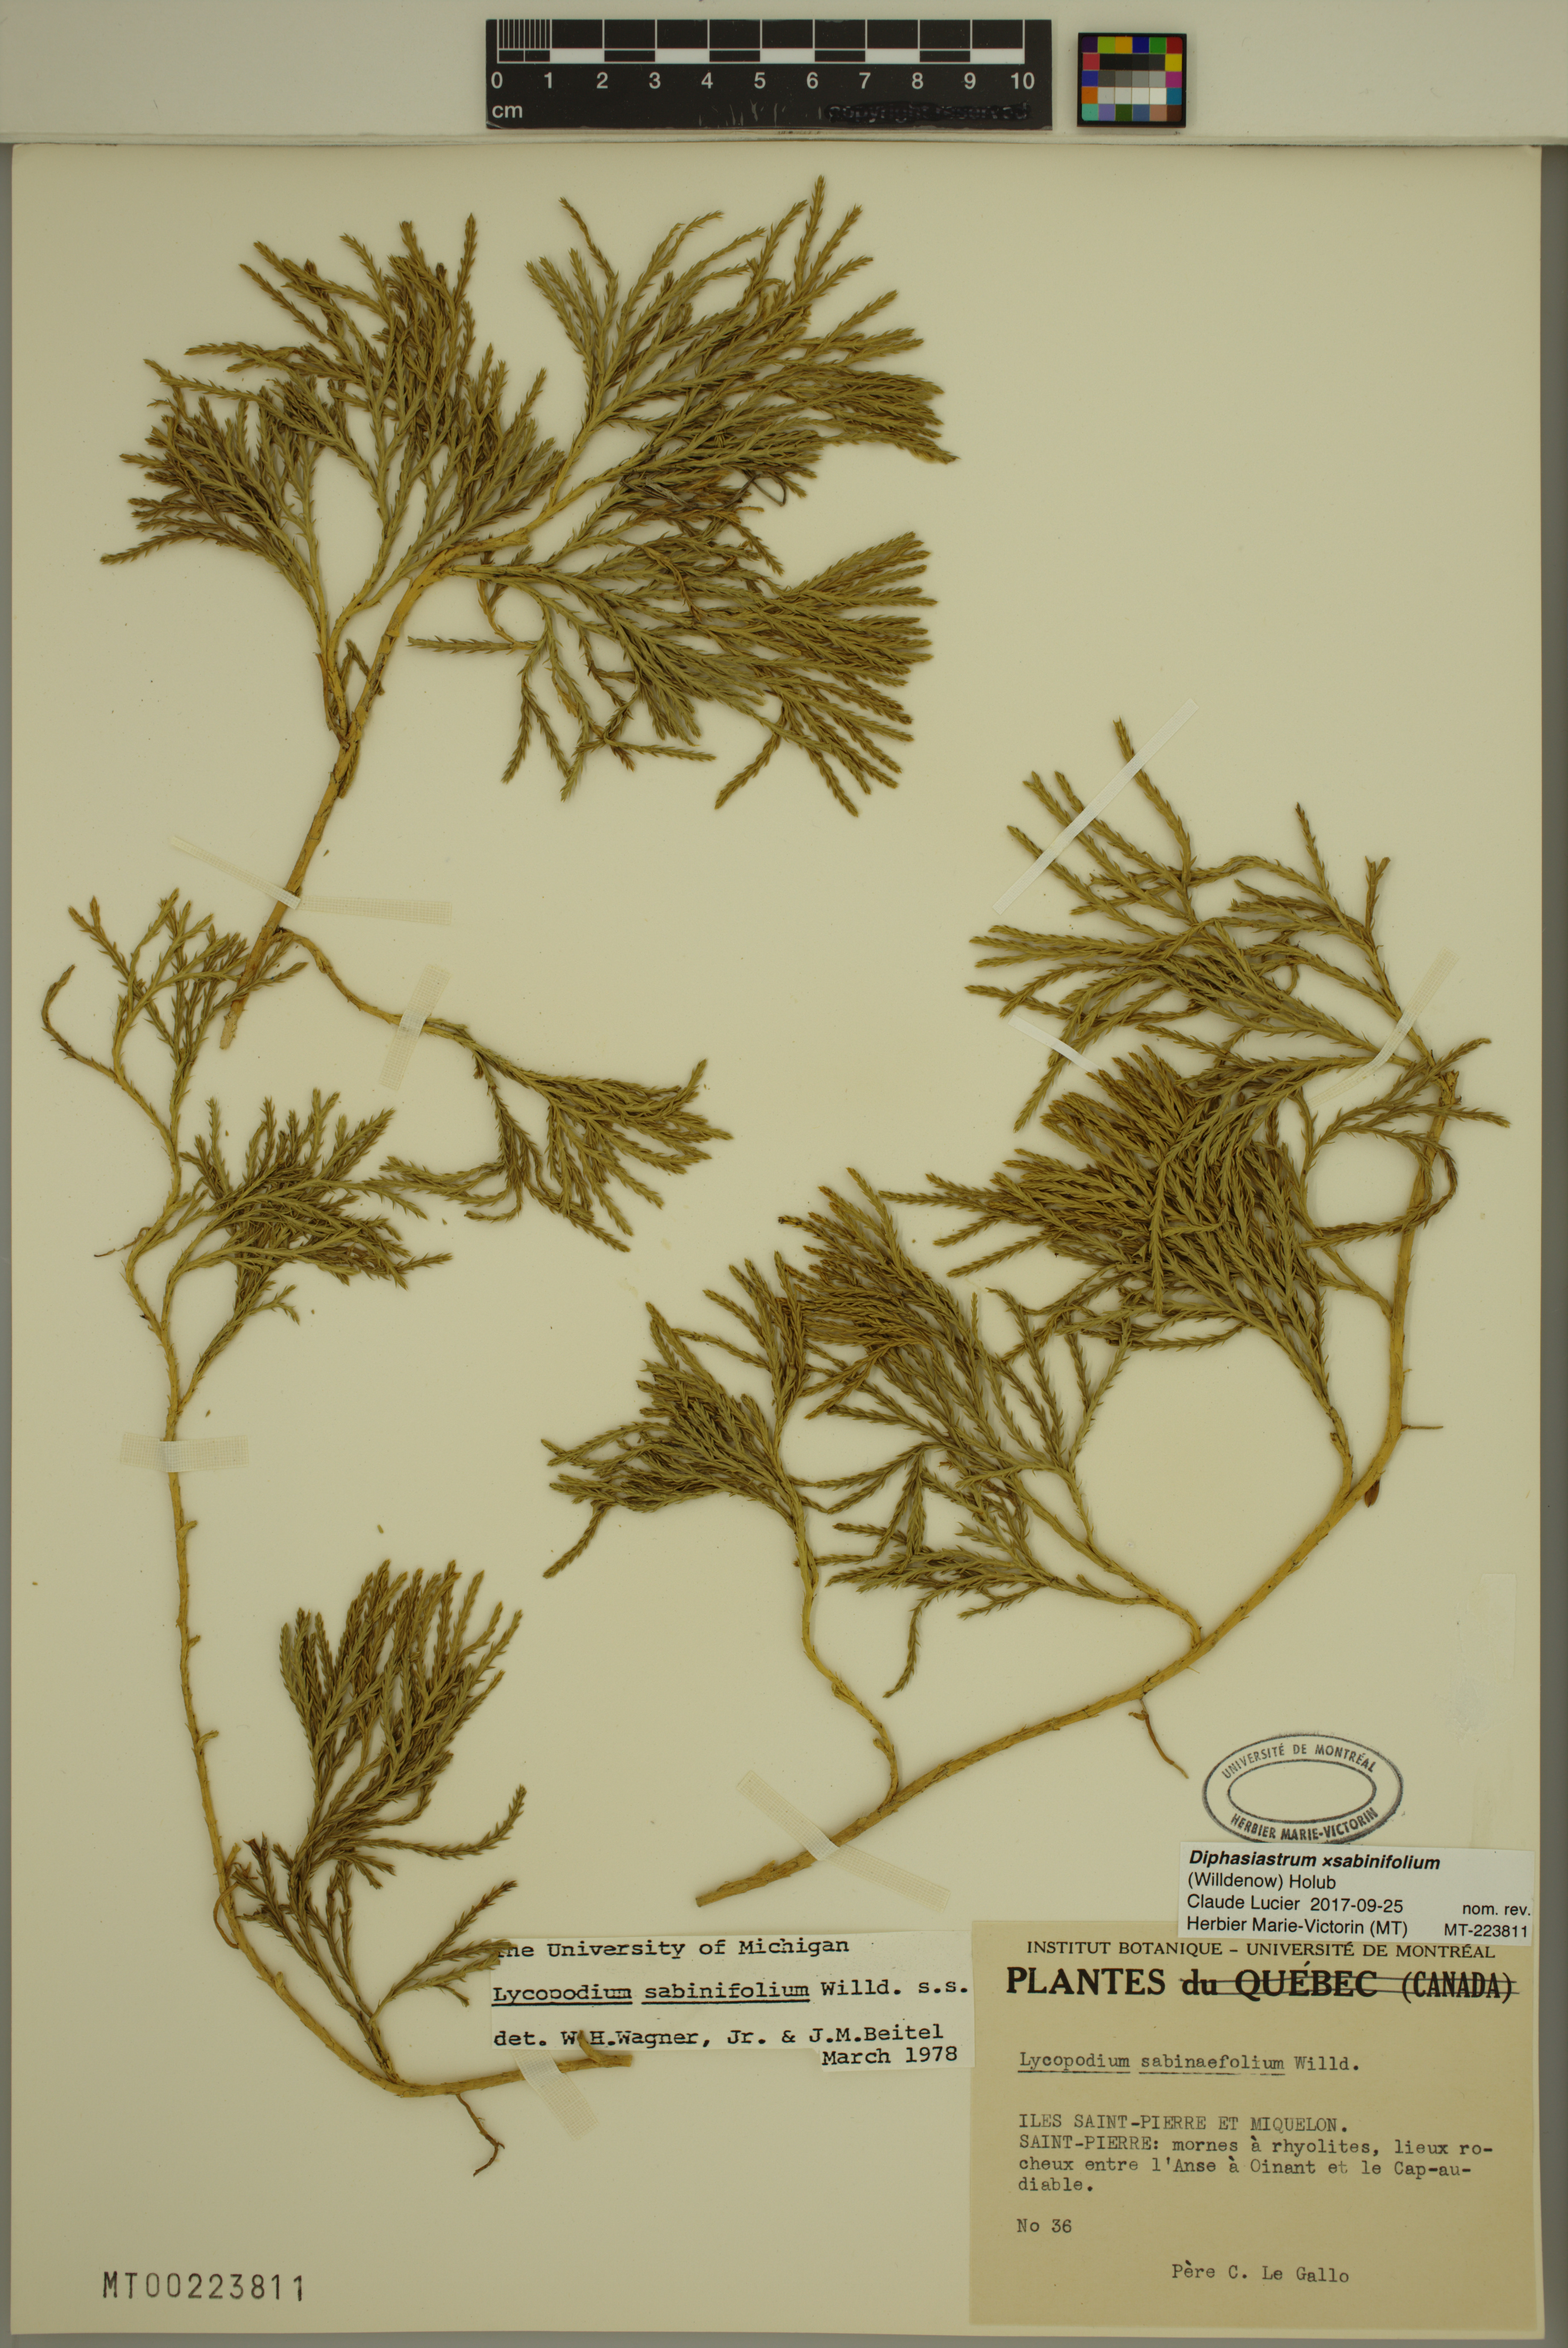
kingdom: Plantae
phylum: Tracheophyta
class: Lycopodiopsida
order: Lycopodiales
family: Lycopodiaceae
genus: Diphasiastrum
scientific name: Diphasiastrum sabinifolium
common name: Juniper clubmoss
